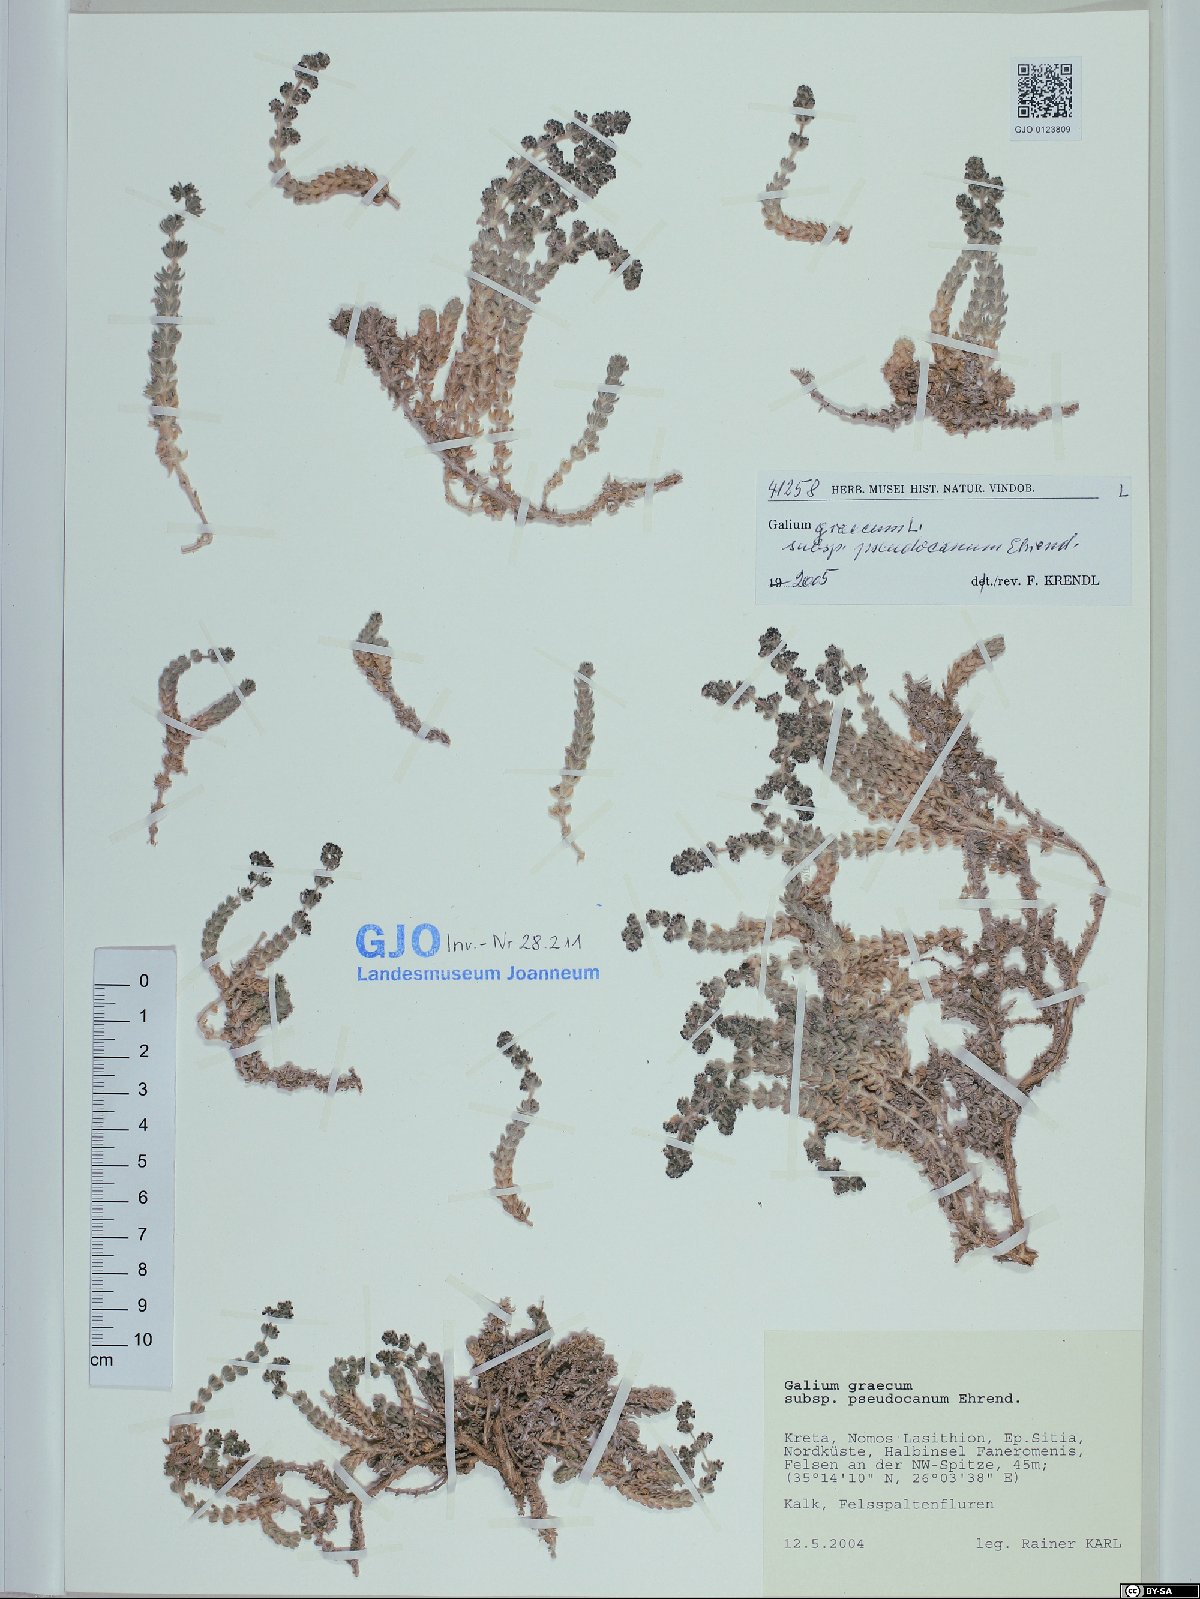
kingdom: Plantae
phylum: Tracheophyta
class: Magnoliopsida
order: Gentianales
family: Rubiaceae
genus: Galium
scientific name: Galium graecum
